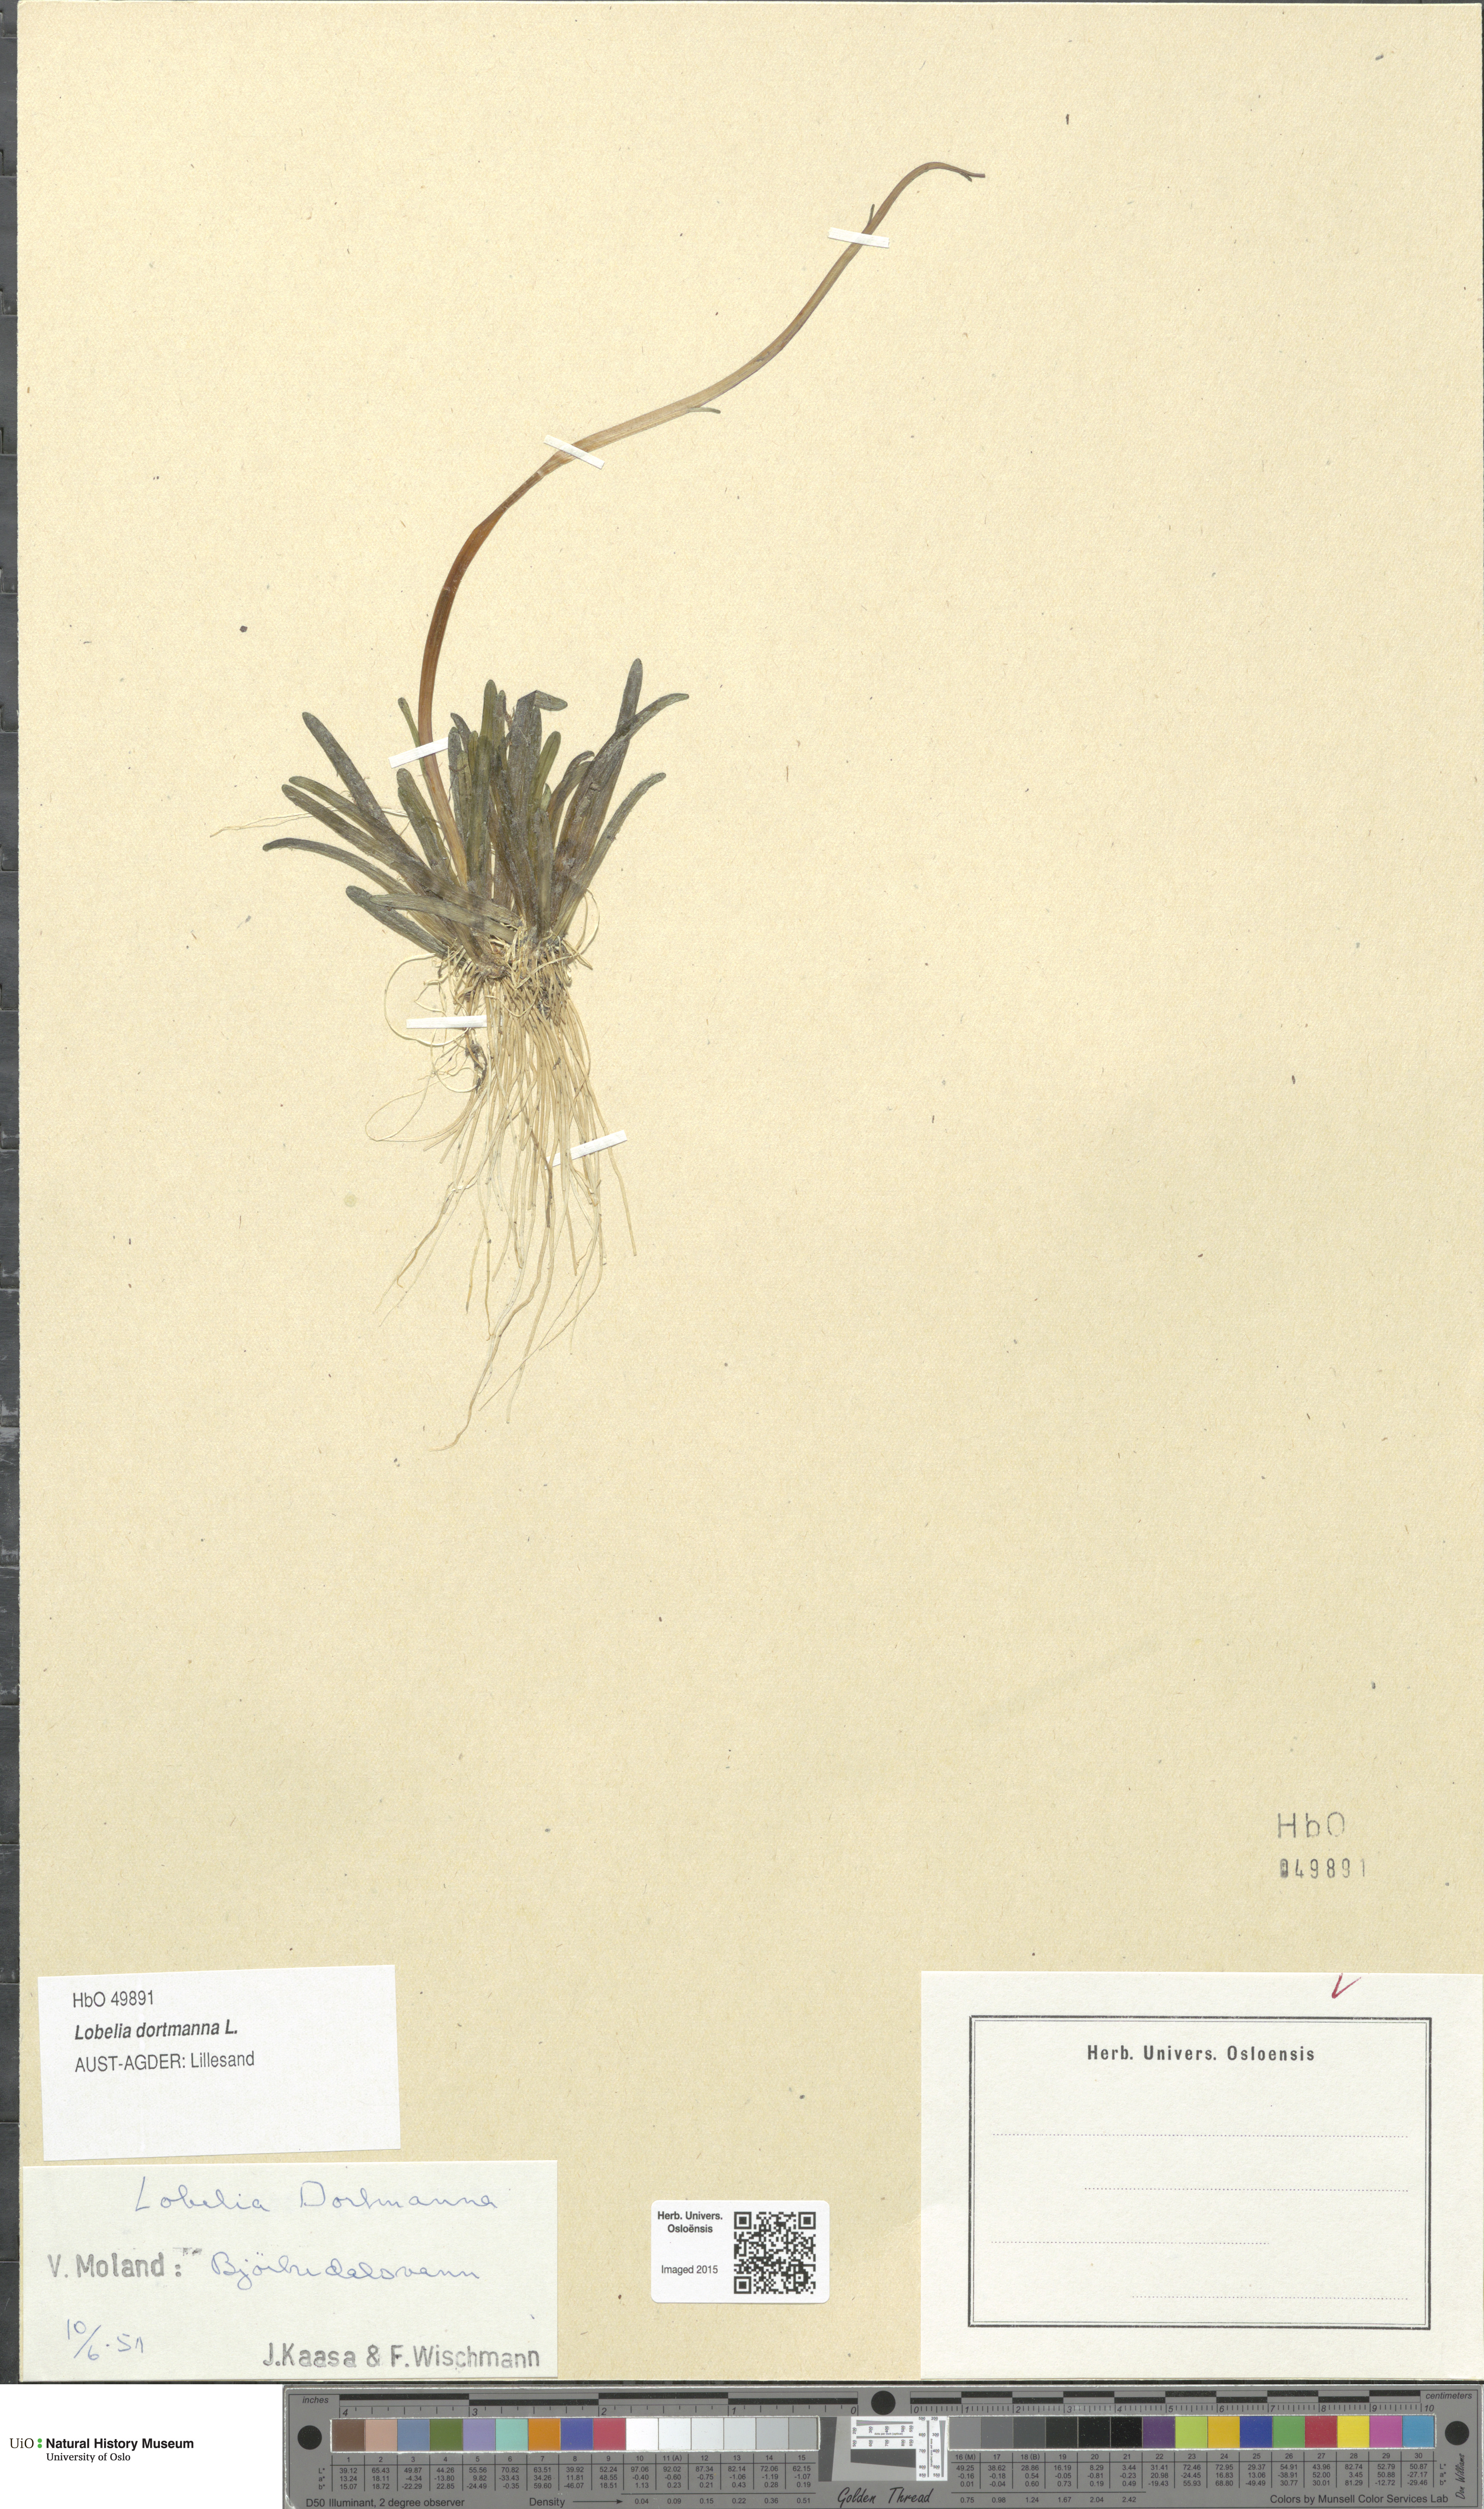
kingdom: Plantae
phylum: Tracheophyta
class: Magnoliopsida
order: Asterales
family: Campanulaceae
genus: Lobelia
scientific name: Lobelia dortmanna
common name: Water lobelia
